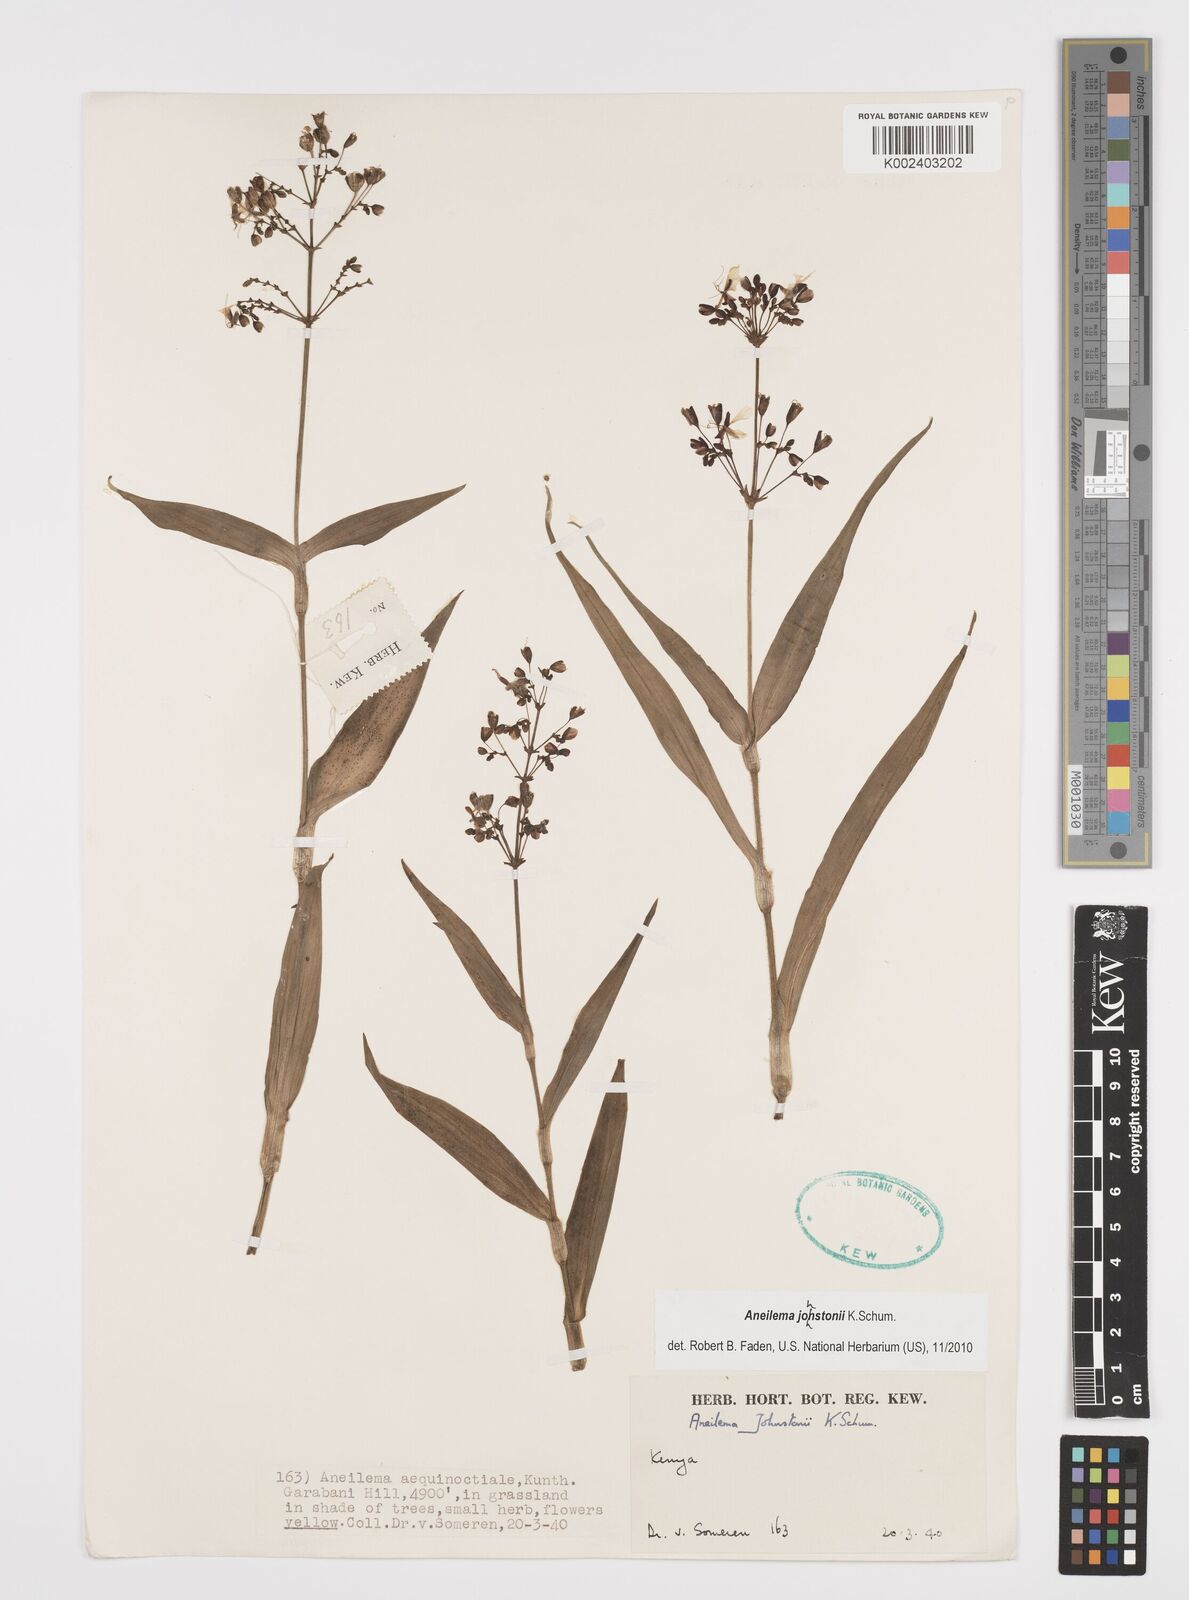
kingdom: Plantae
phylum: Tracheophyta
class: Liliopsida
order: Commelinales
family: Commelinaceae
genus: Aneilema
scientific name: Aneilema johnstonii
